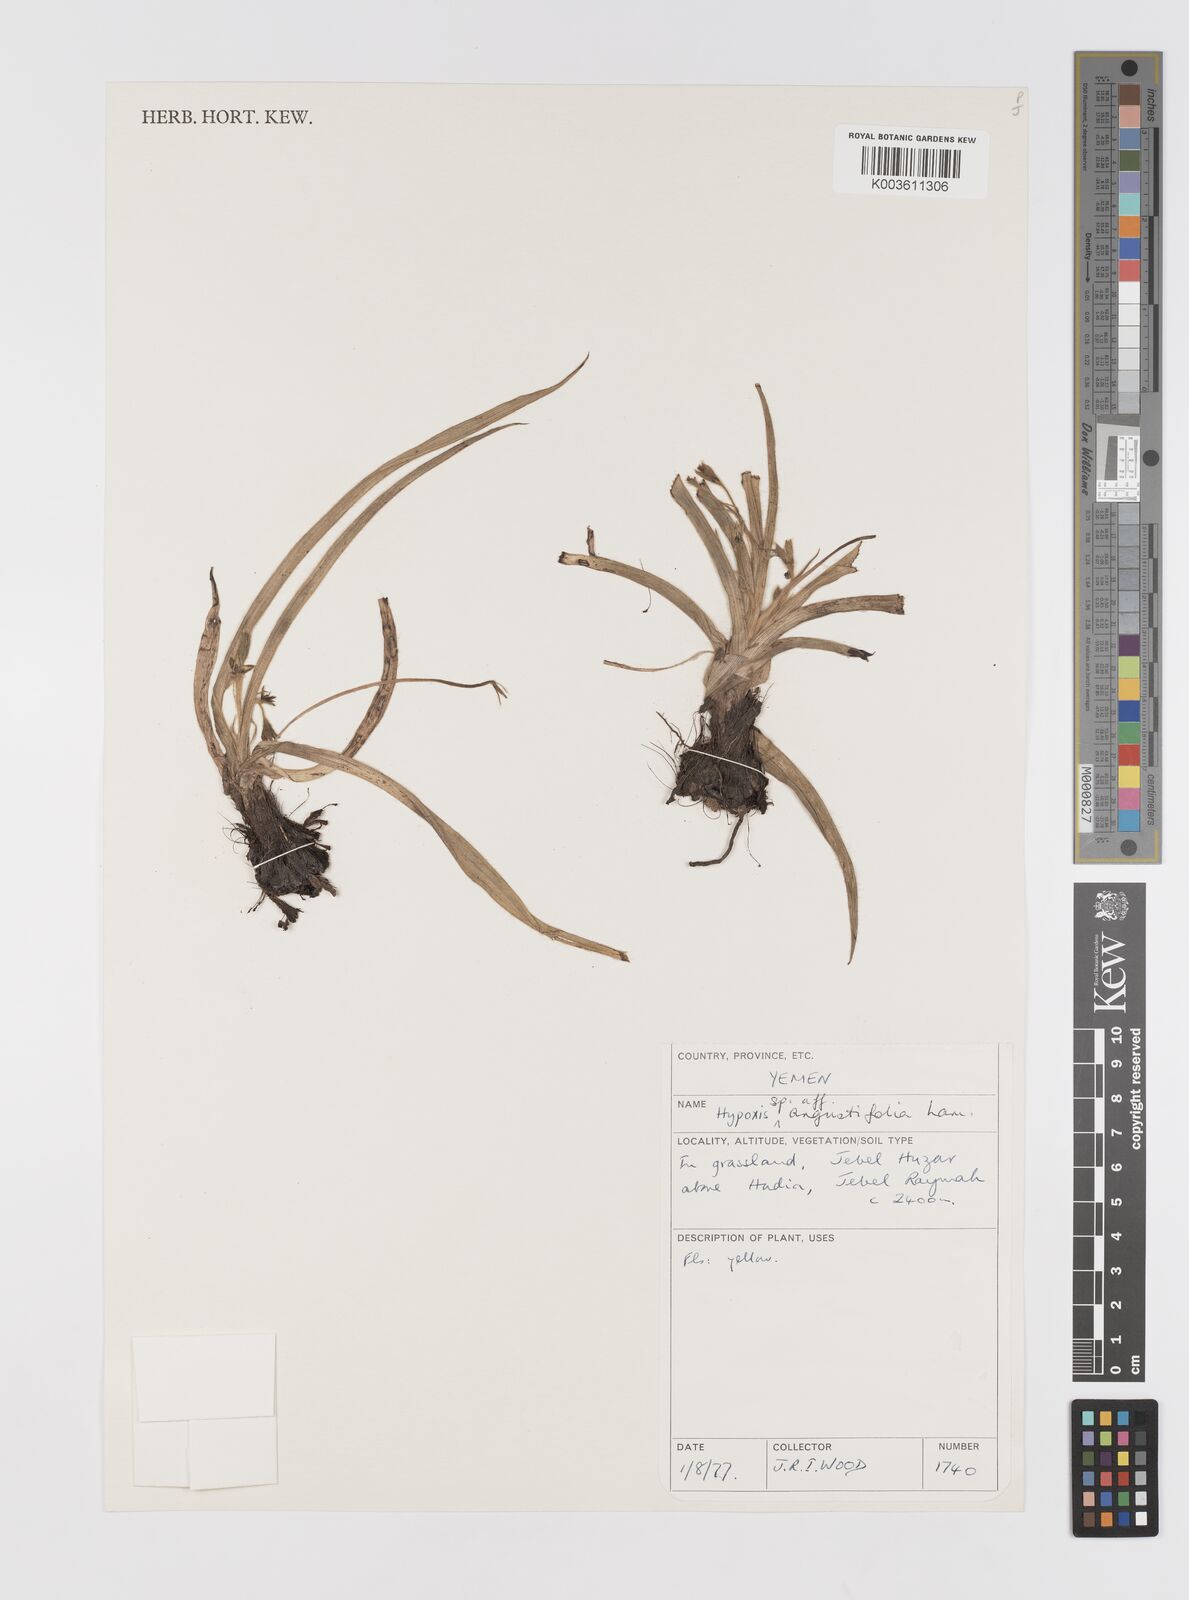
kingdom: Plantae
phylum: Tracheophyta
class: Liliopsida
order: Asparagales
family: Hypoxidaceae
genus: Hypoxis
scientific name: Hypoxis angustifolia
